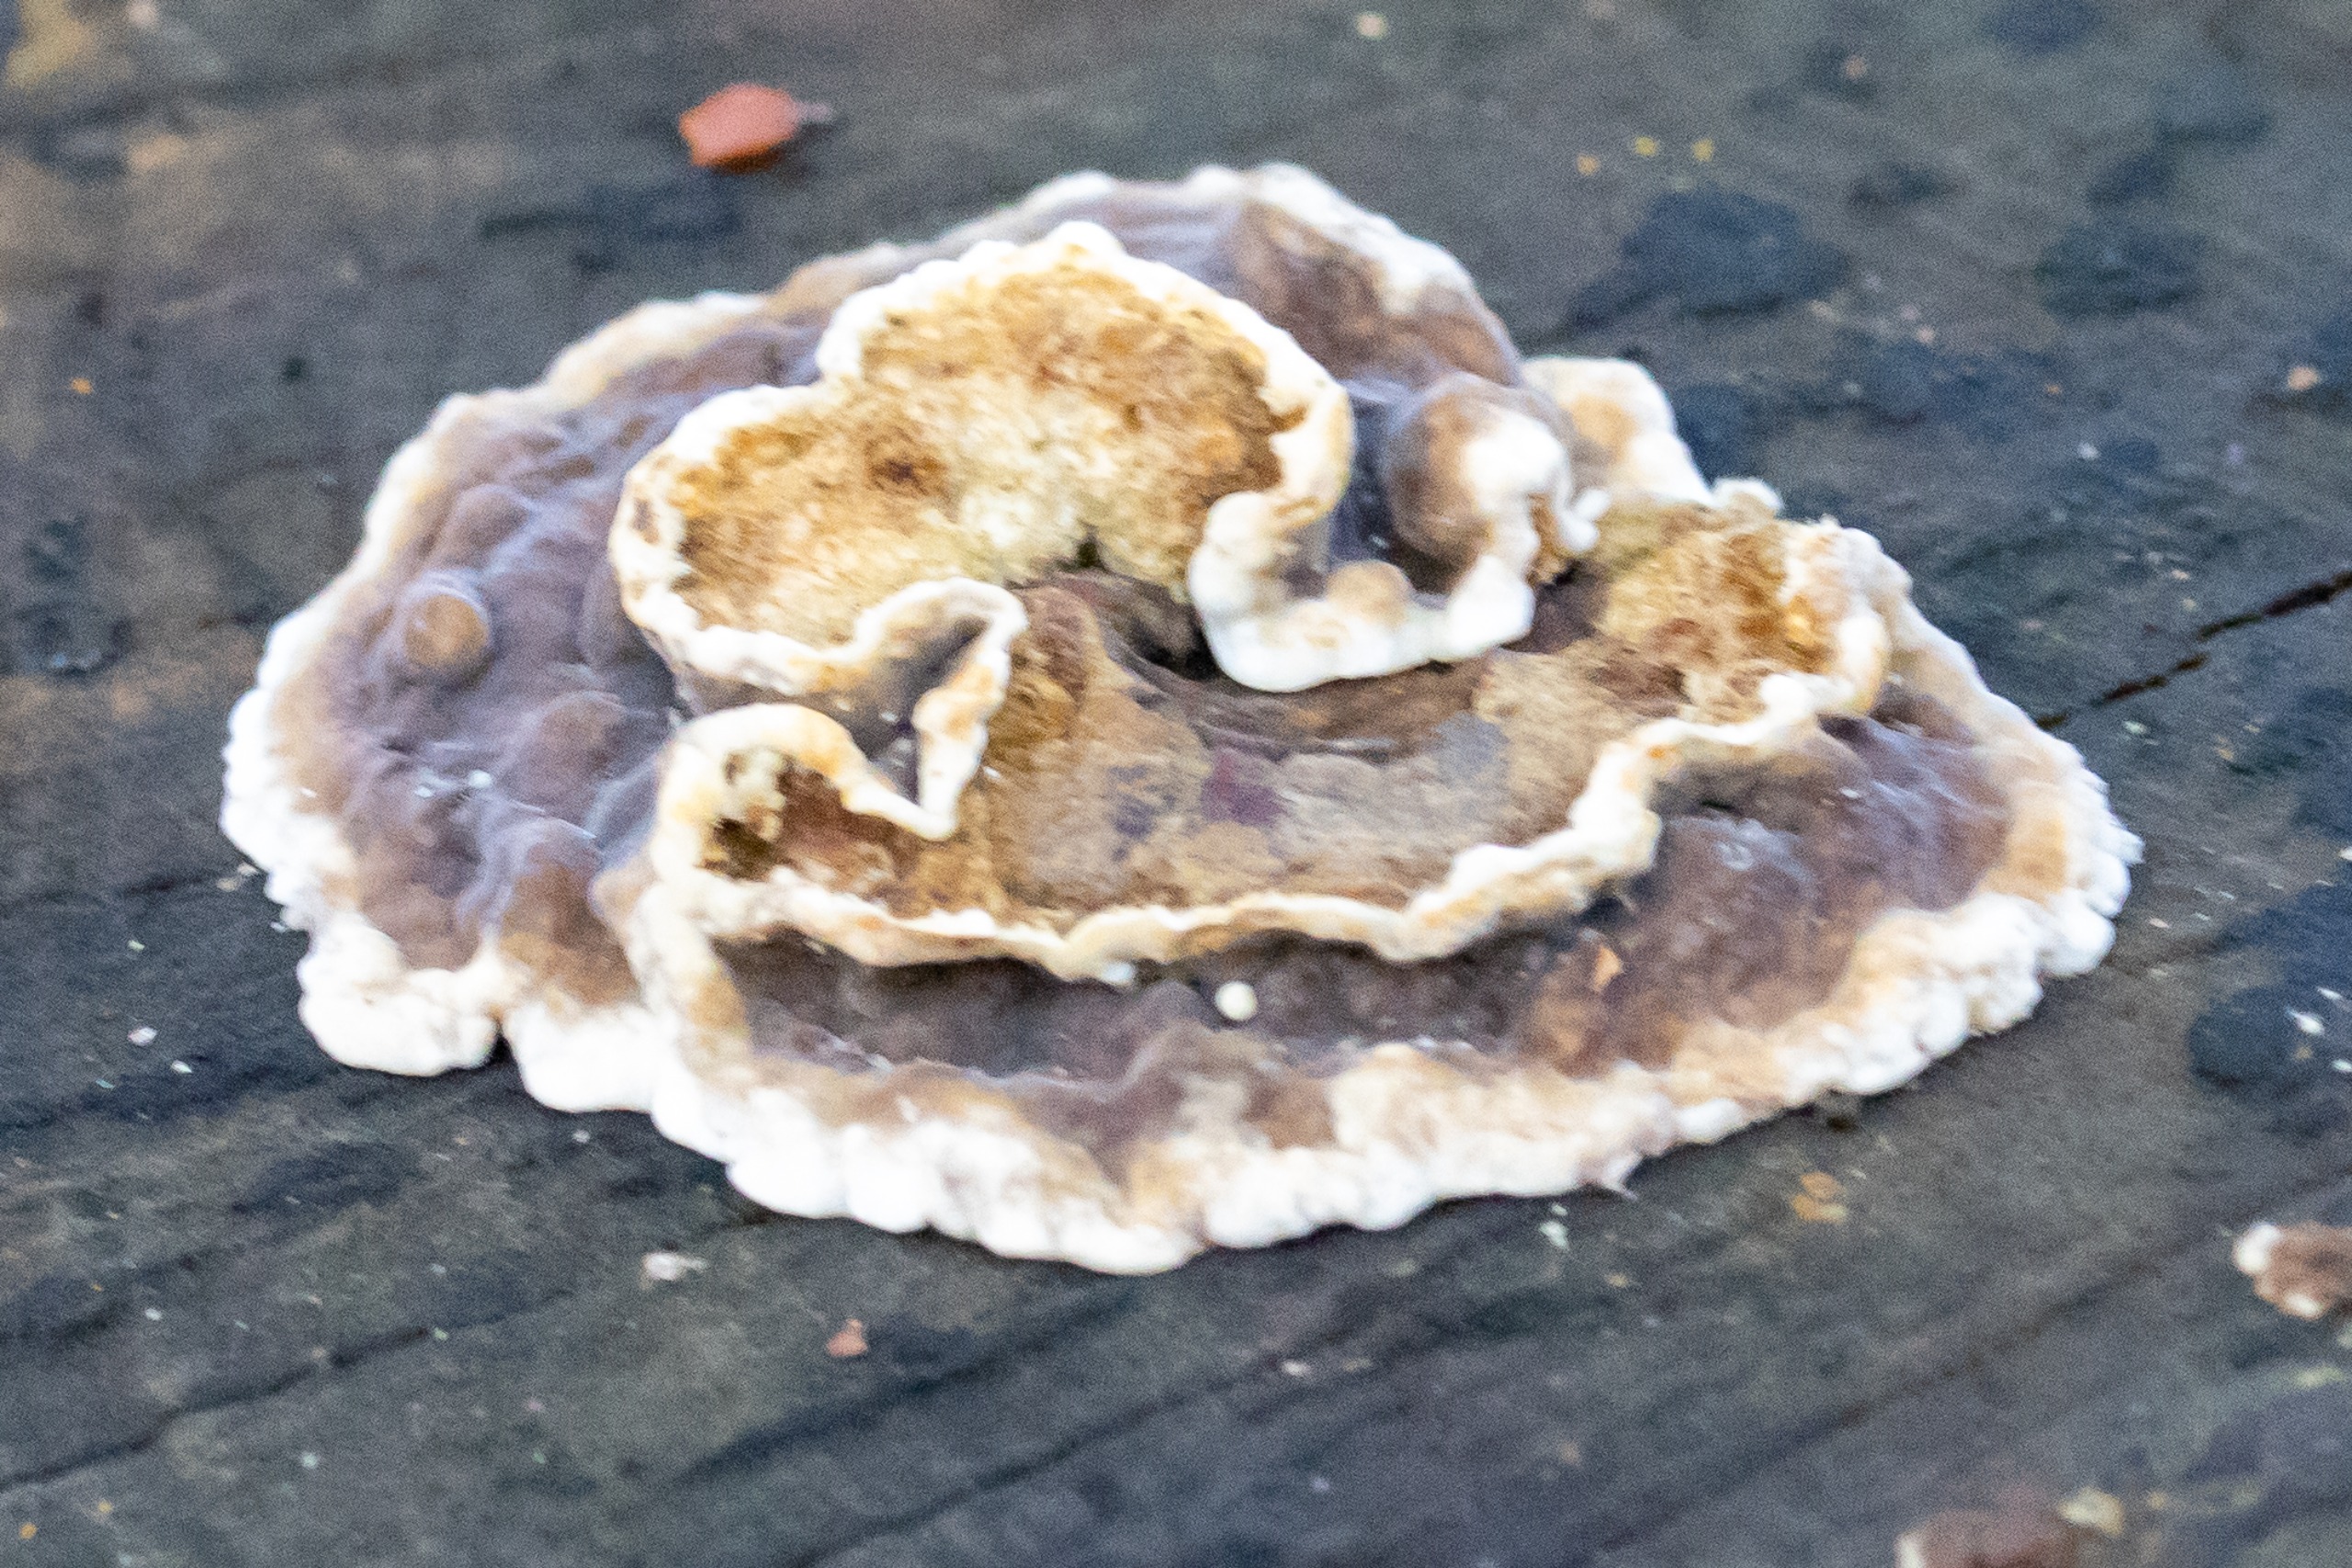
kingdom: Fungi
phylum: Basidiomycota
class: Agaricomycetes
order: Polyporales
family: Phanerochaetaceae
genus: Bjerkandera
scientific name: Bjerkandera adusta
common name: Sveden sodporesvamp
